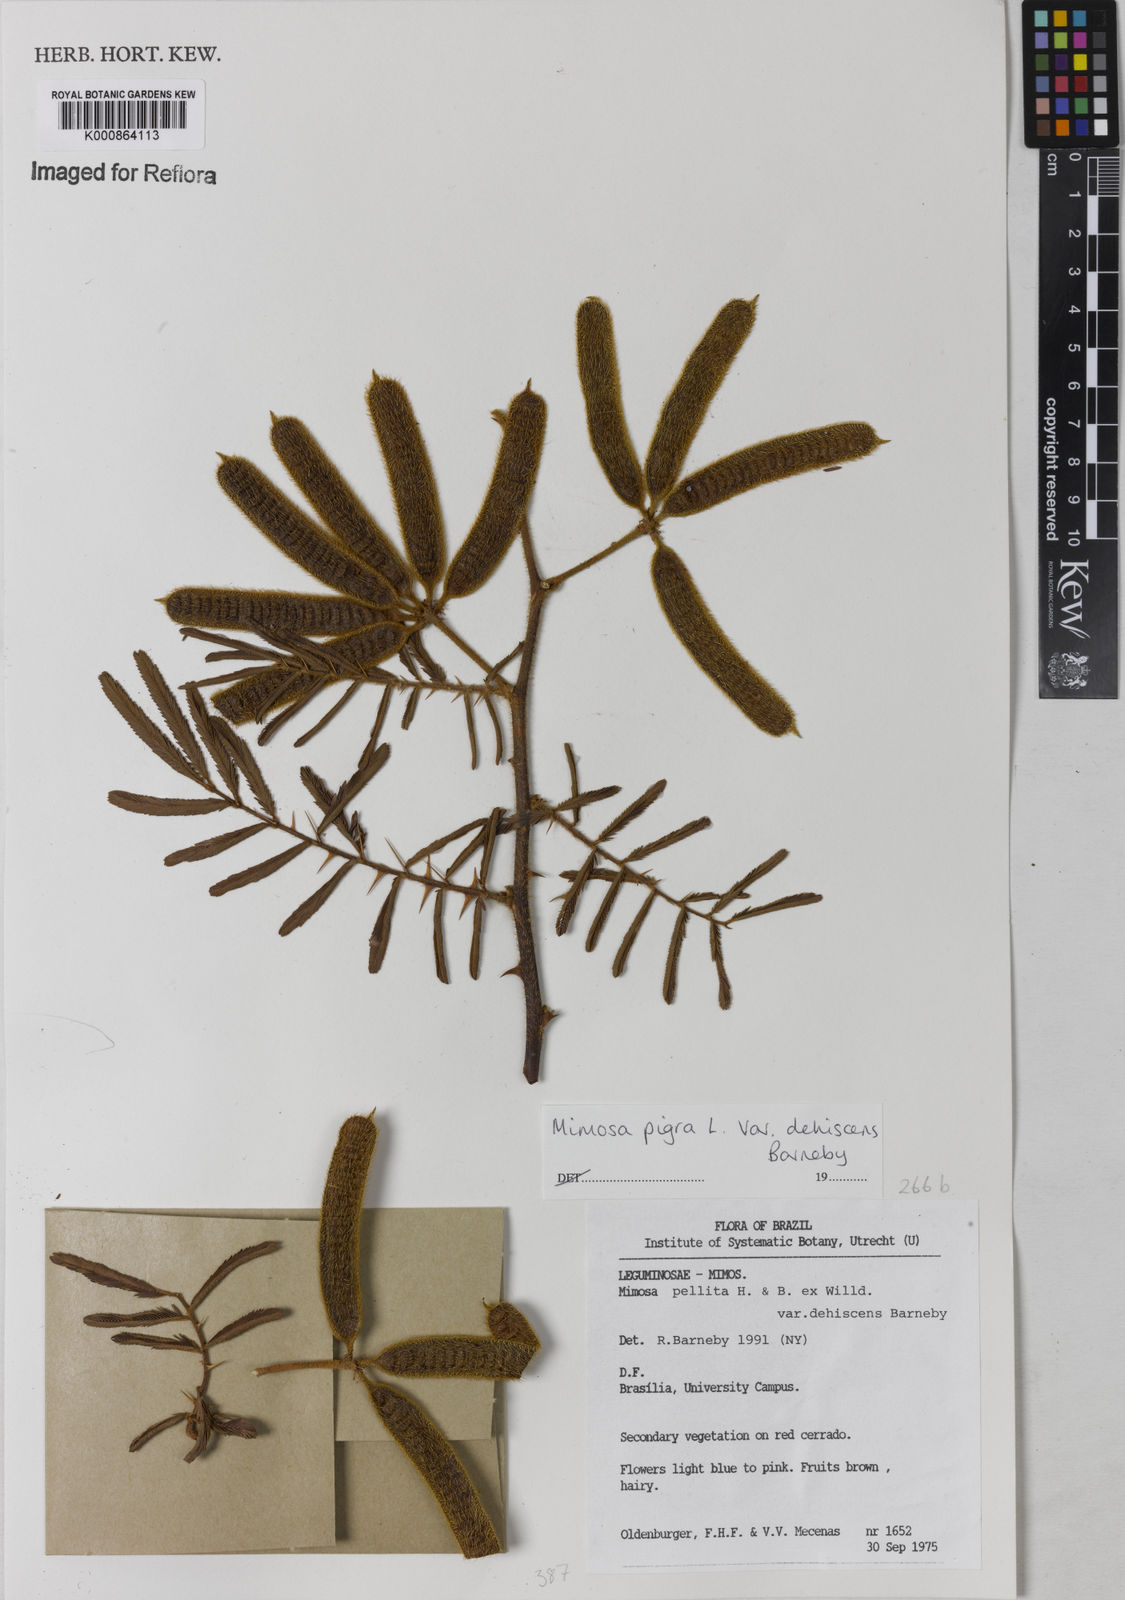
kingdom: Plantae
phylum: Tracheophyta
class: Magnoliopsida
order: Fabales
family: Fabaceae
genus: Mimosa
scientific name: Mimosa pigra
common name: Black mimosa
